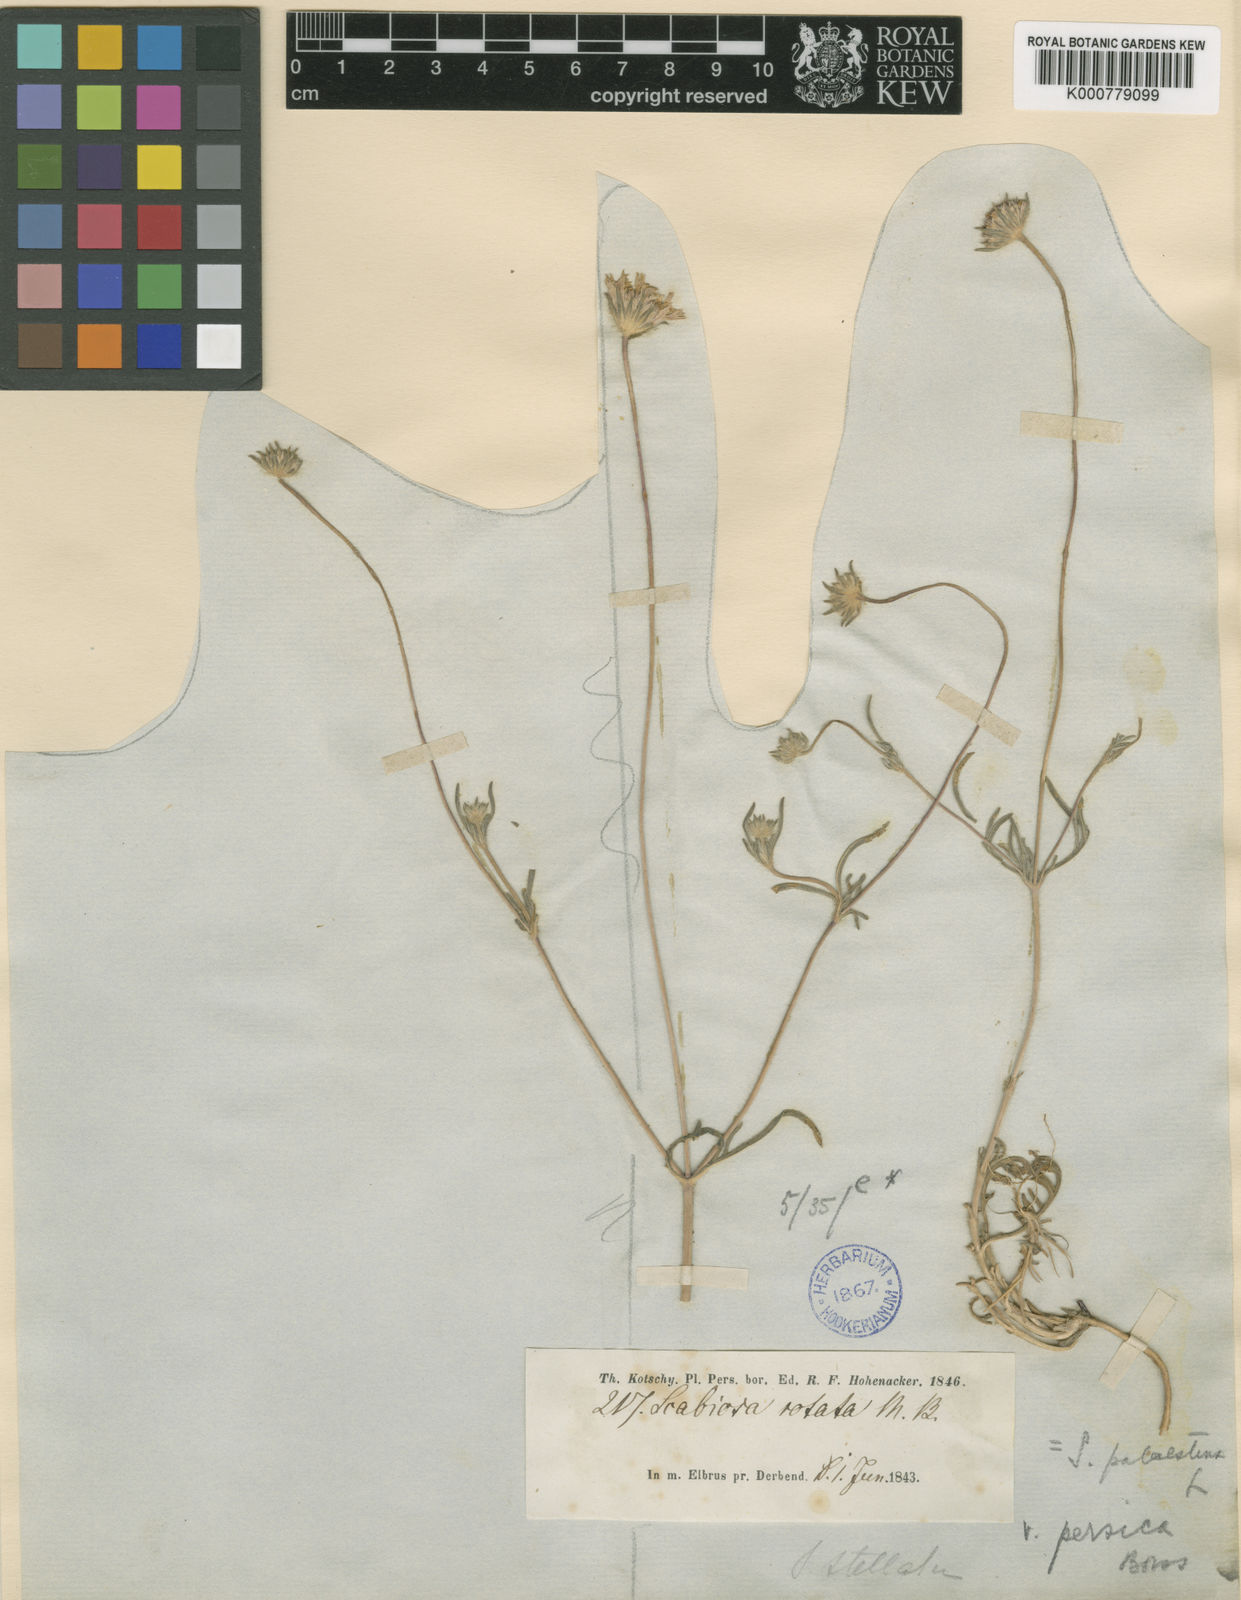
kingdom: Plantae
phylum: Tracheophyta
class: Magnoliopsida
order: Dipsacales
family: Caprifoliaceae
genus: Lomelosia
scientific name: Lomelosia palaestina
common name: Balkan pincushions
